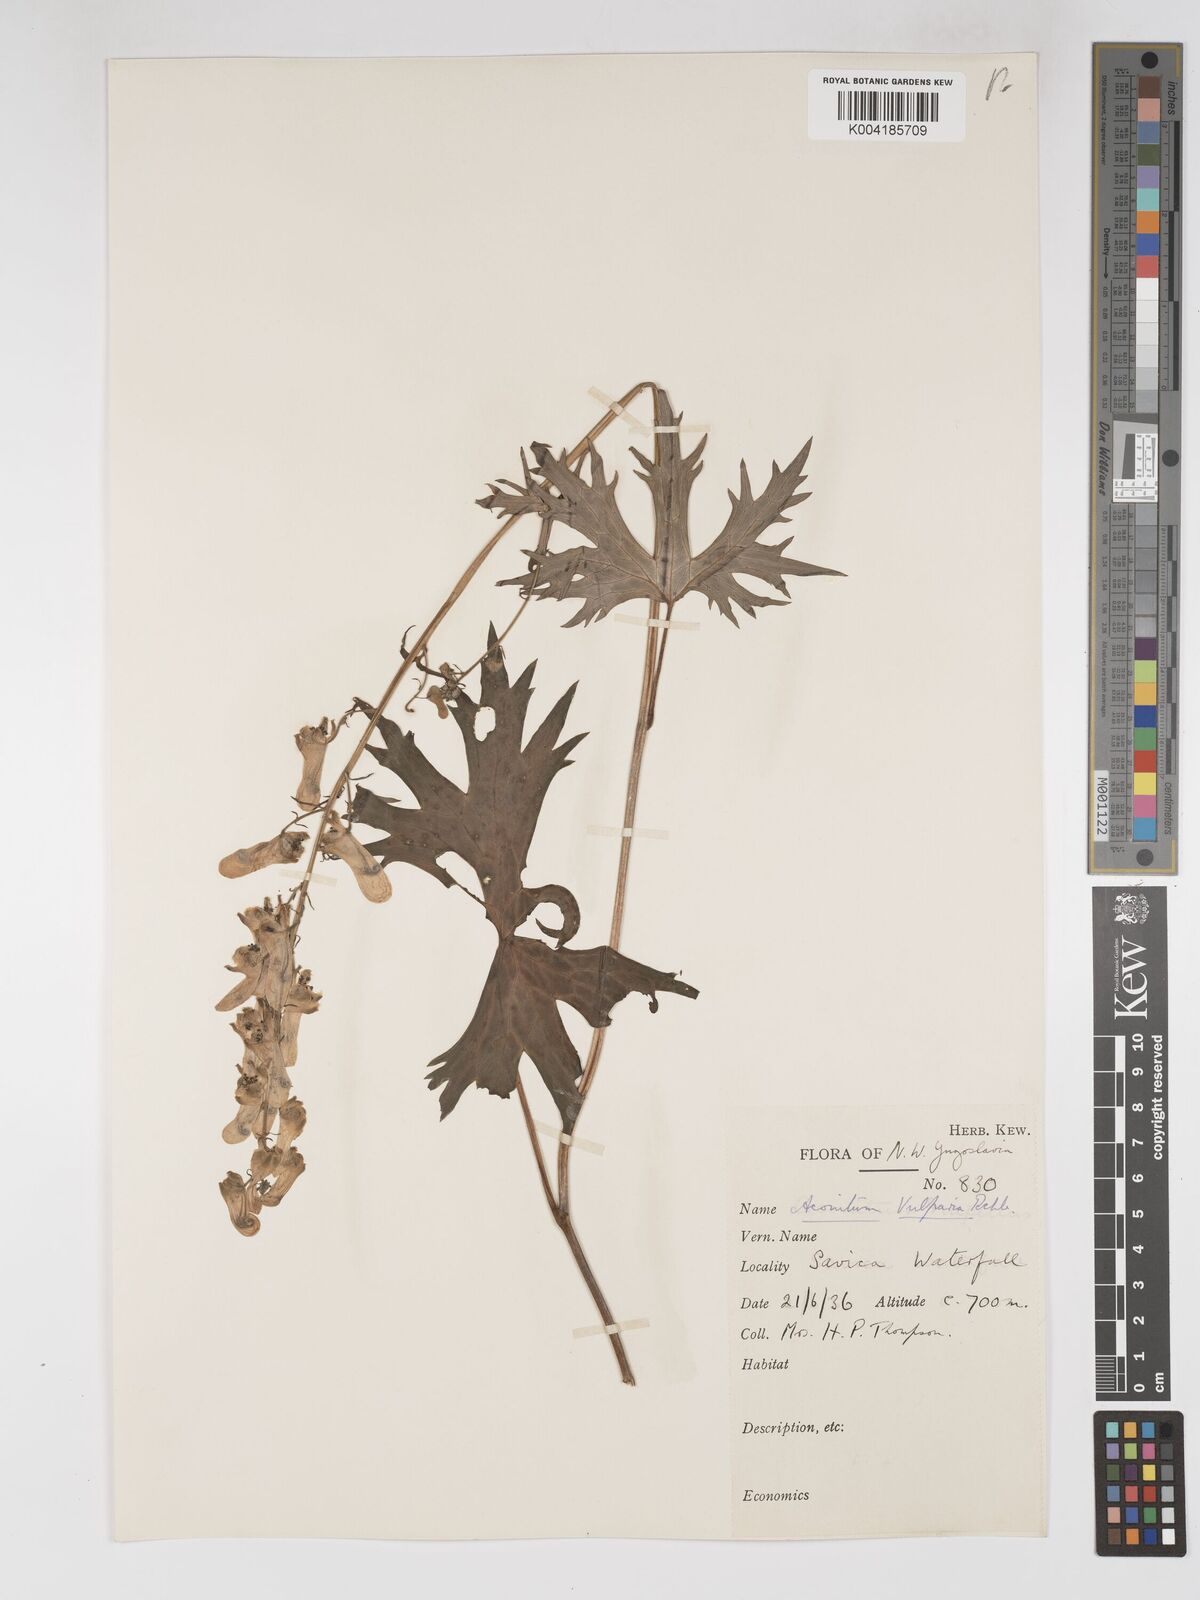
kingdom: Plantae
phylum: Tracheophyta
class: Magnoliopsida
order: Ranunculales
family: Ranunculaceae
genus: Aconitum
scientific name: Aconitum lycoctonum
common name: Wolf's-bane
